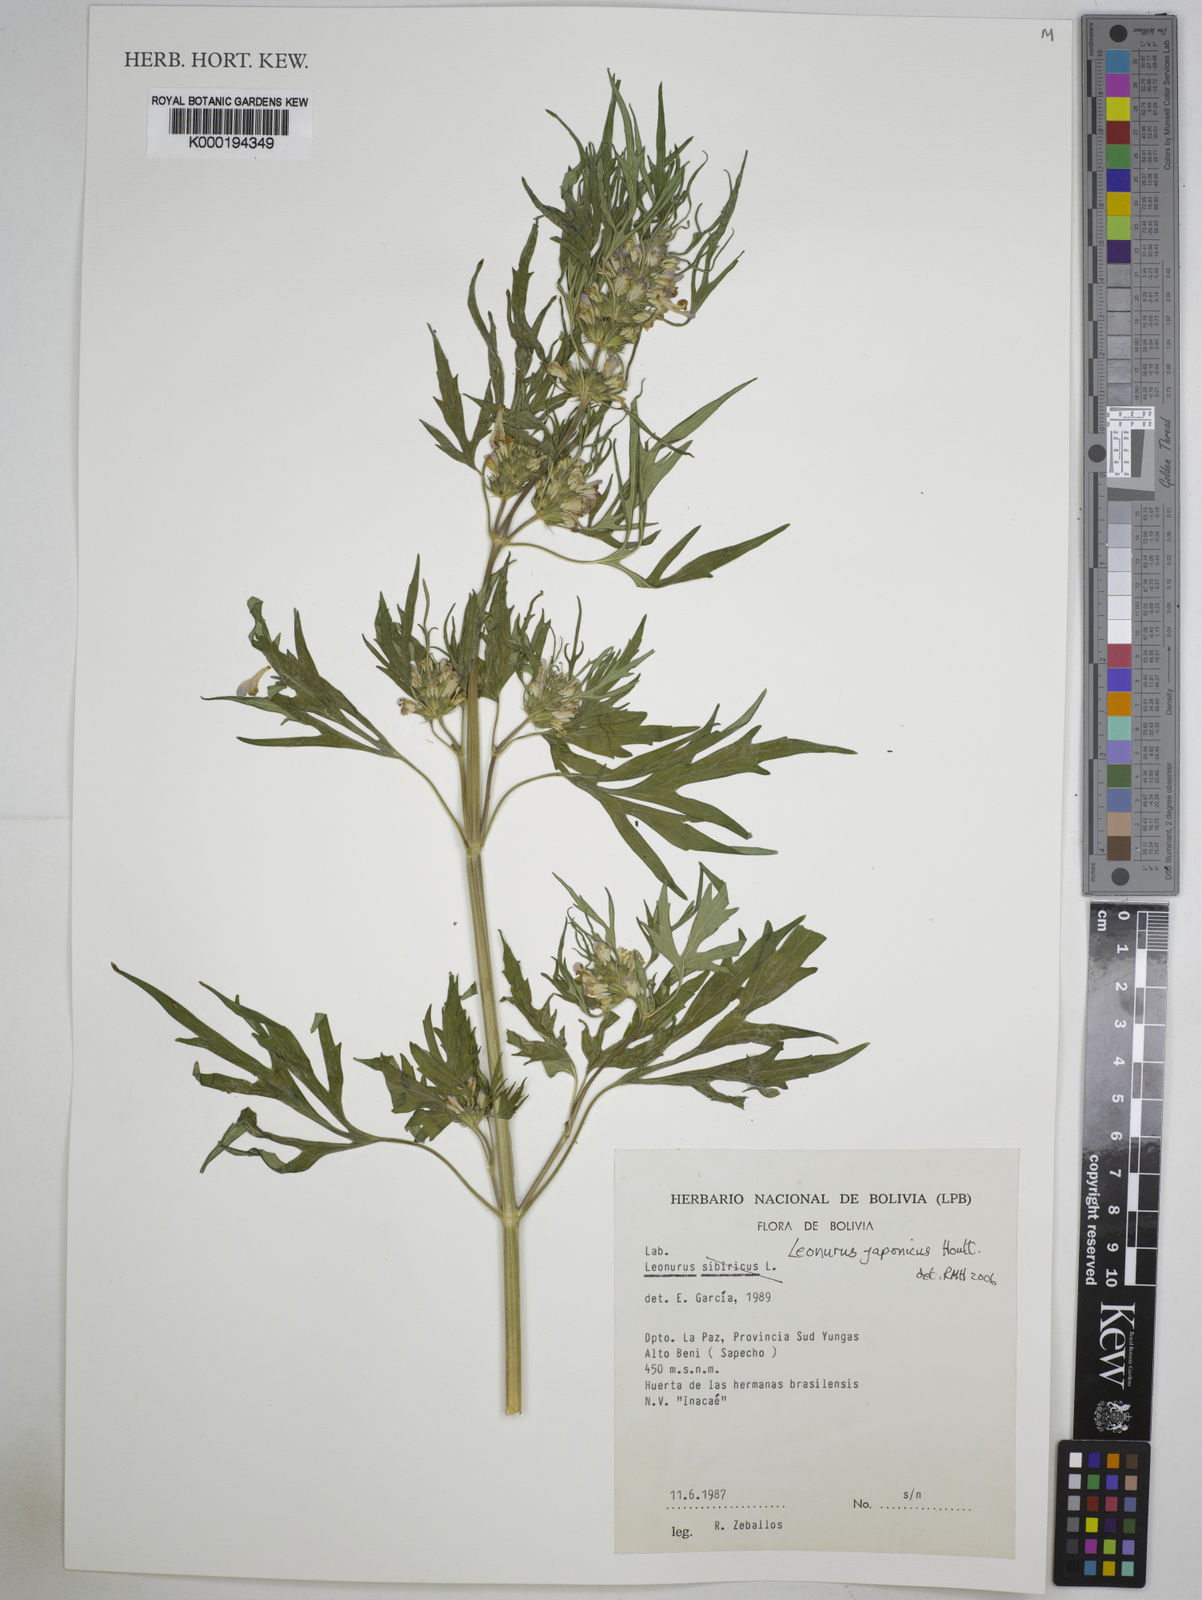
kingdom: Plantae
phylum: Tracheophyta
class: Magnoliopsida
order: Lamiales
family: Lamiaceae
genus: Leonurus
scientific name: Leonurus japonicus
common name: Honeyweed
